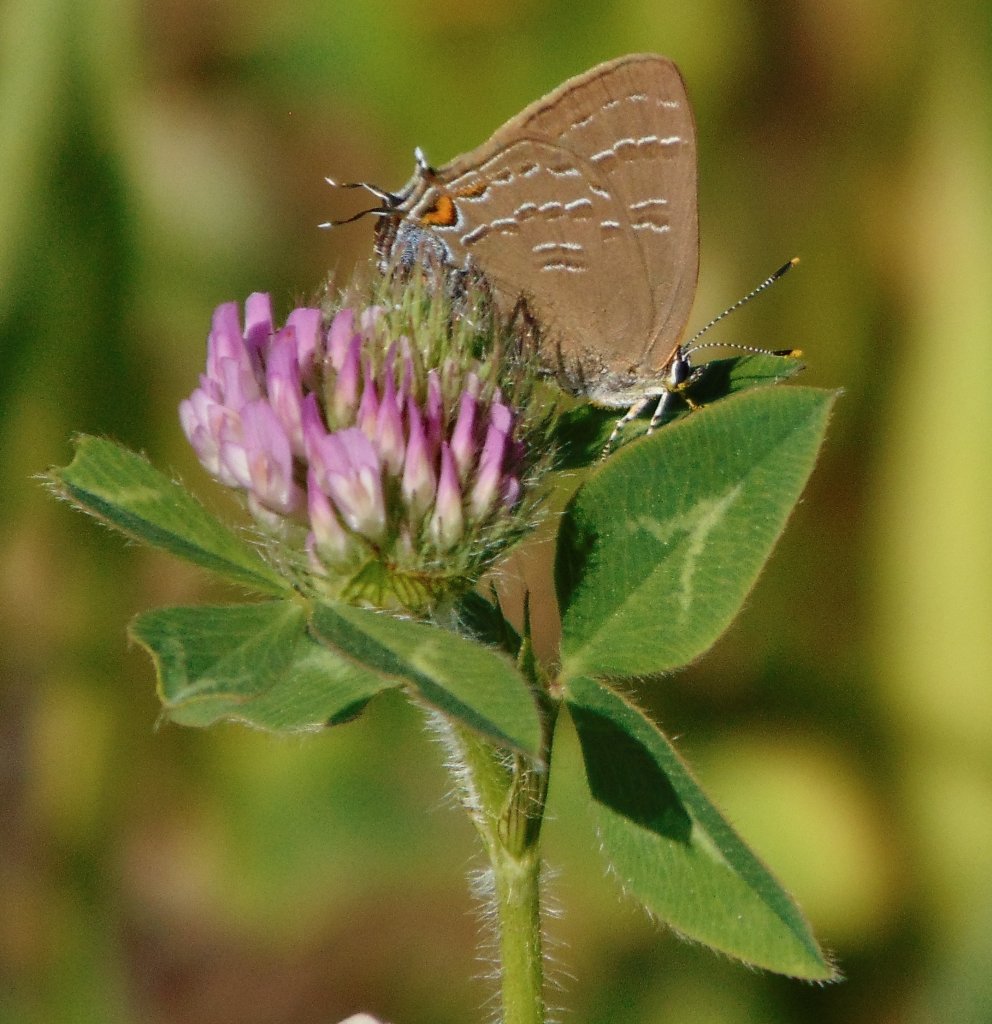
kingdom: Animalia
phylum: Arthropoda
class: Insecta
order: Lepidoptera
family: Lycaenidae
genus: Satyrium
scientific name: Satyrium calanus
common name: Banded Hairstreak
